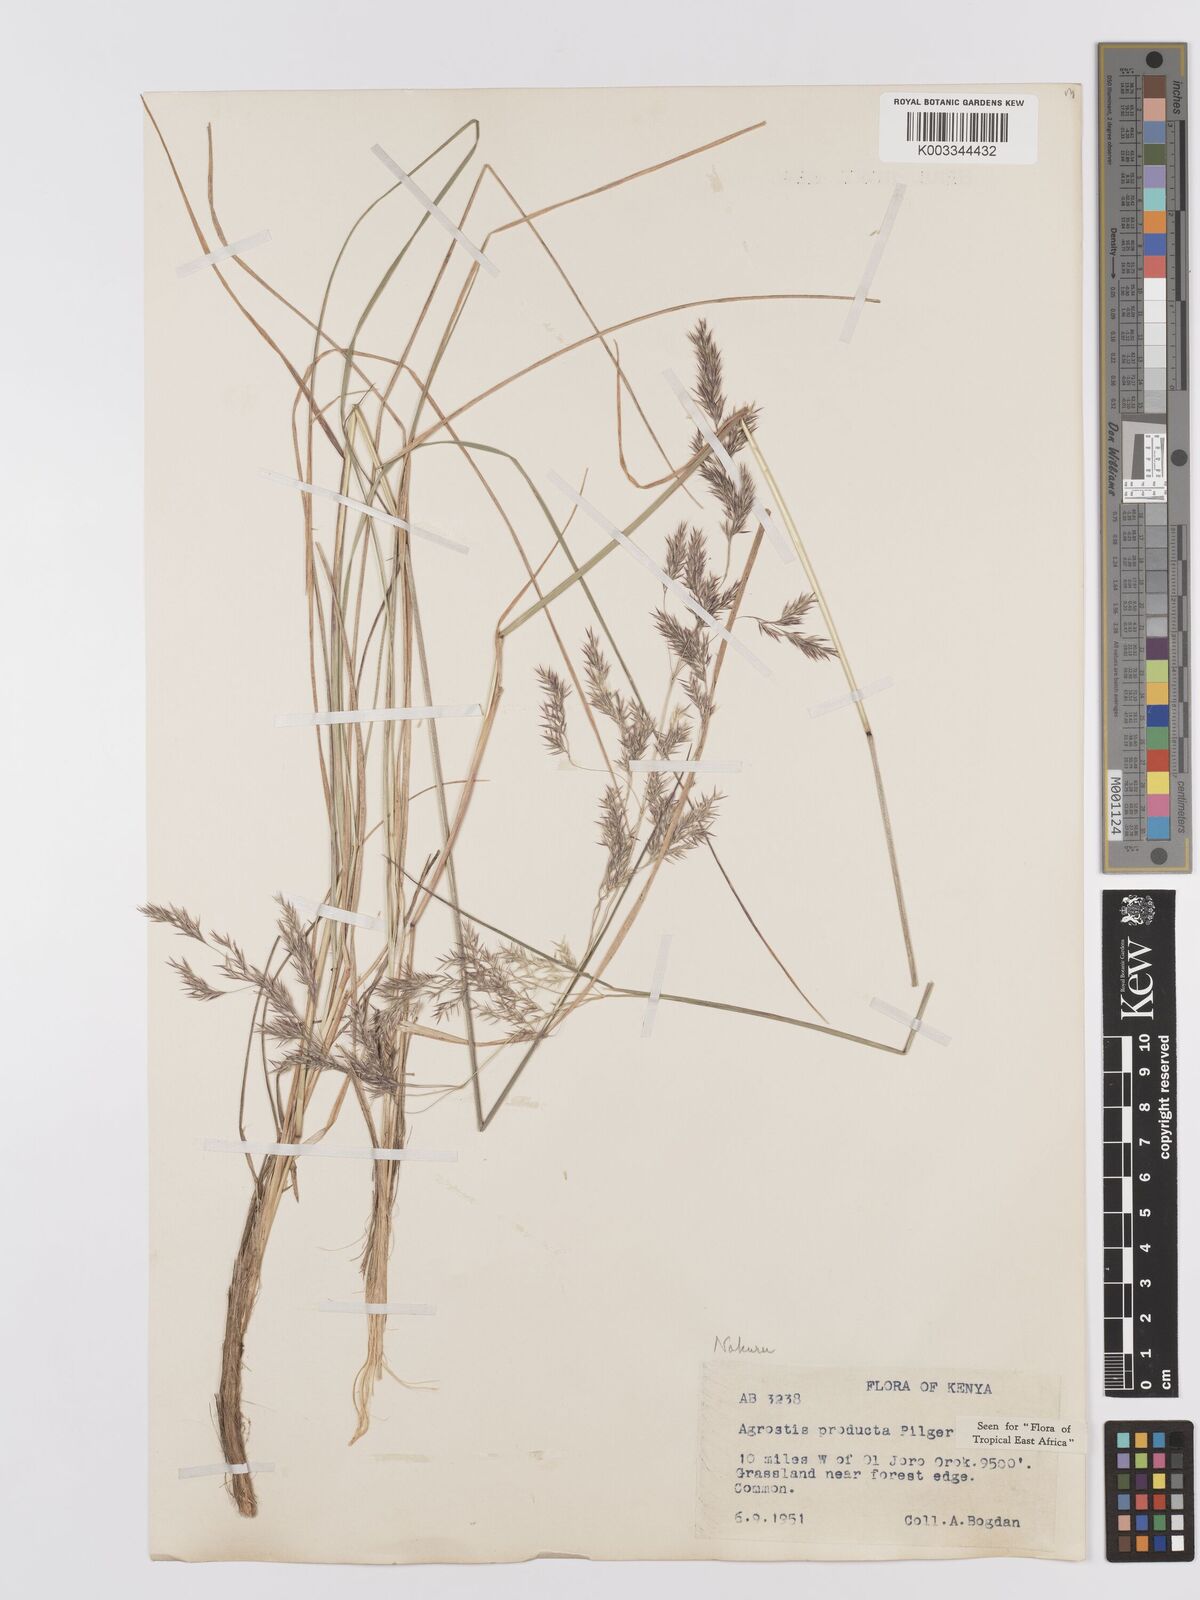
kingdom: Plantae
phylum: Tracheophyta
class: Liliopsida
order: Poales
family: Poaceae
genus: Agrostis
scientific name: Agrostis producta
